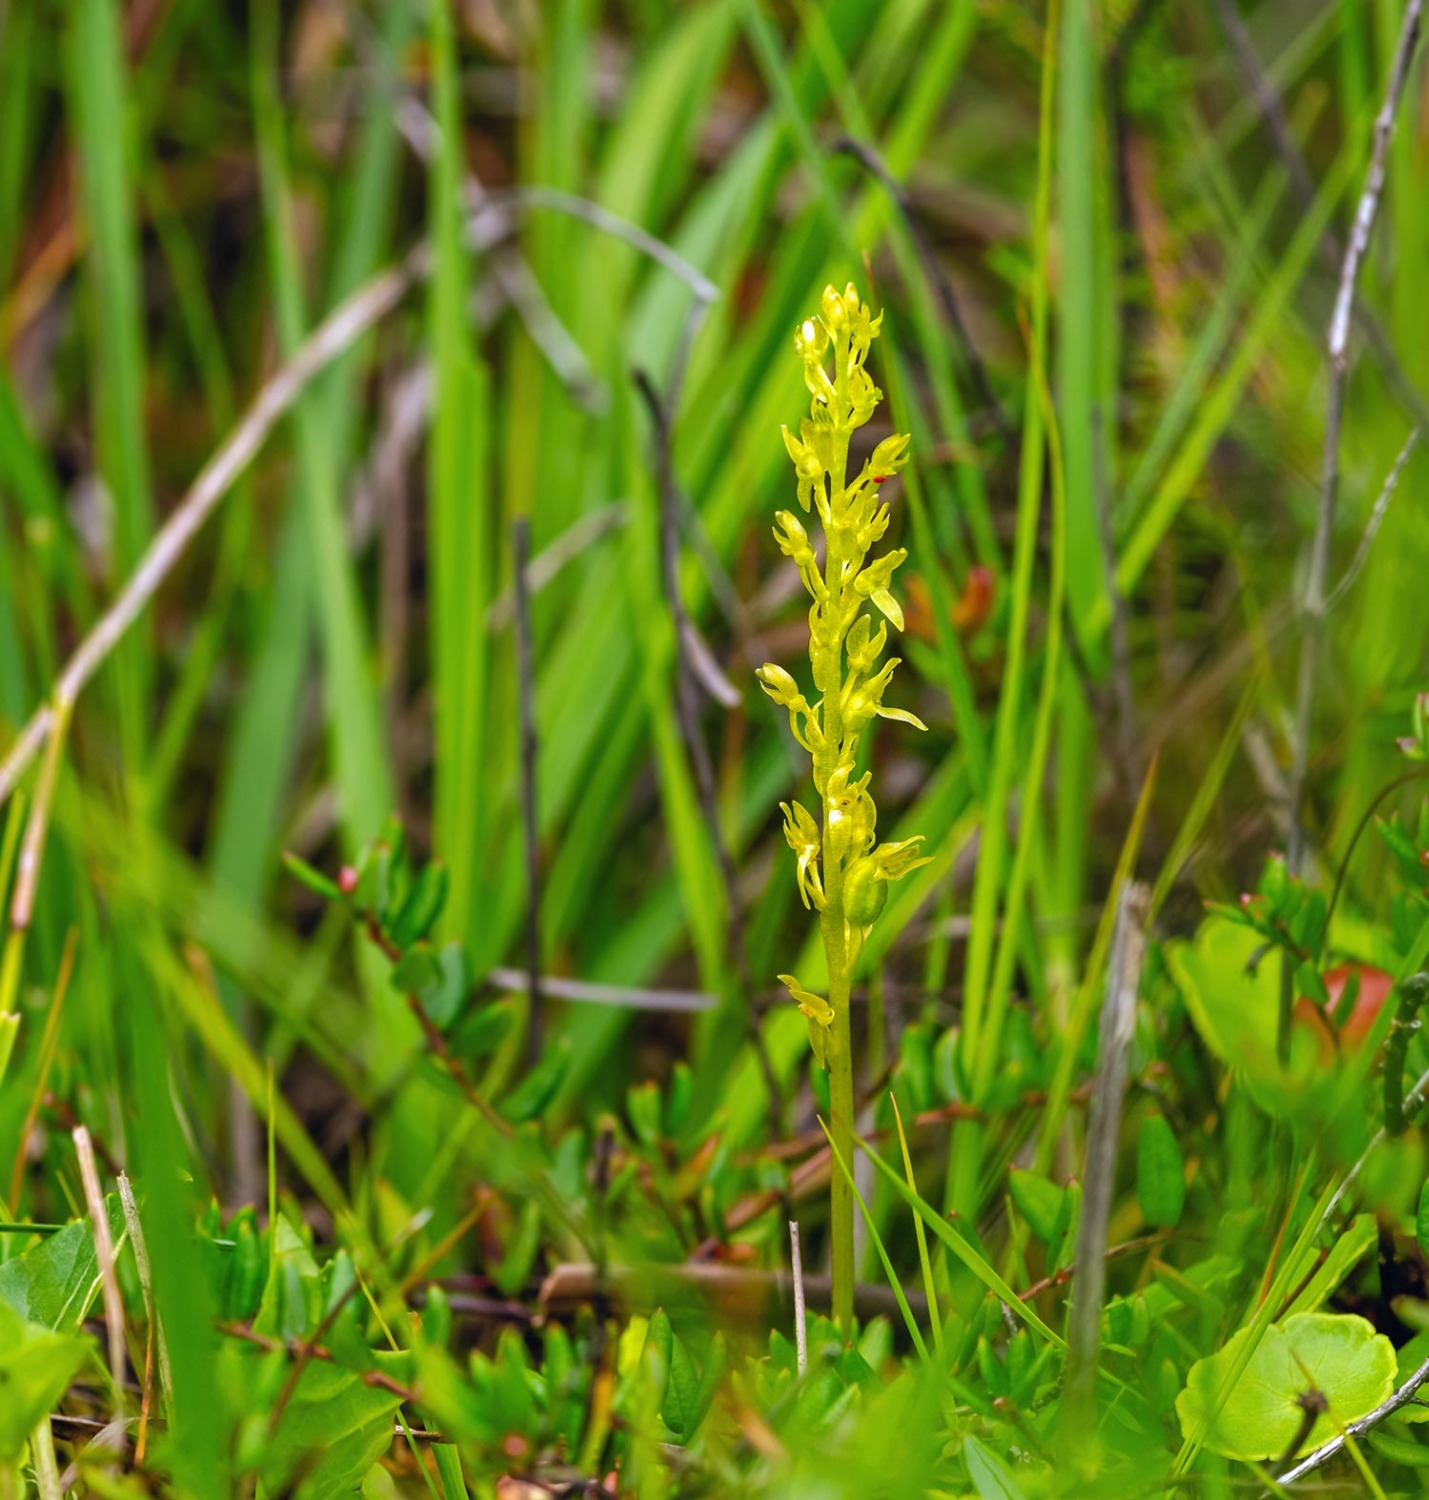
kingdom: Plantae
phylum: Tracheophyta
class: Liliopsida
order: Asparagales
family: Orchidaceae
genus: Hammarbya
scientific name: Hammarbya paludosa
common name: Hjertelæbe
